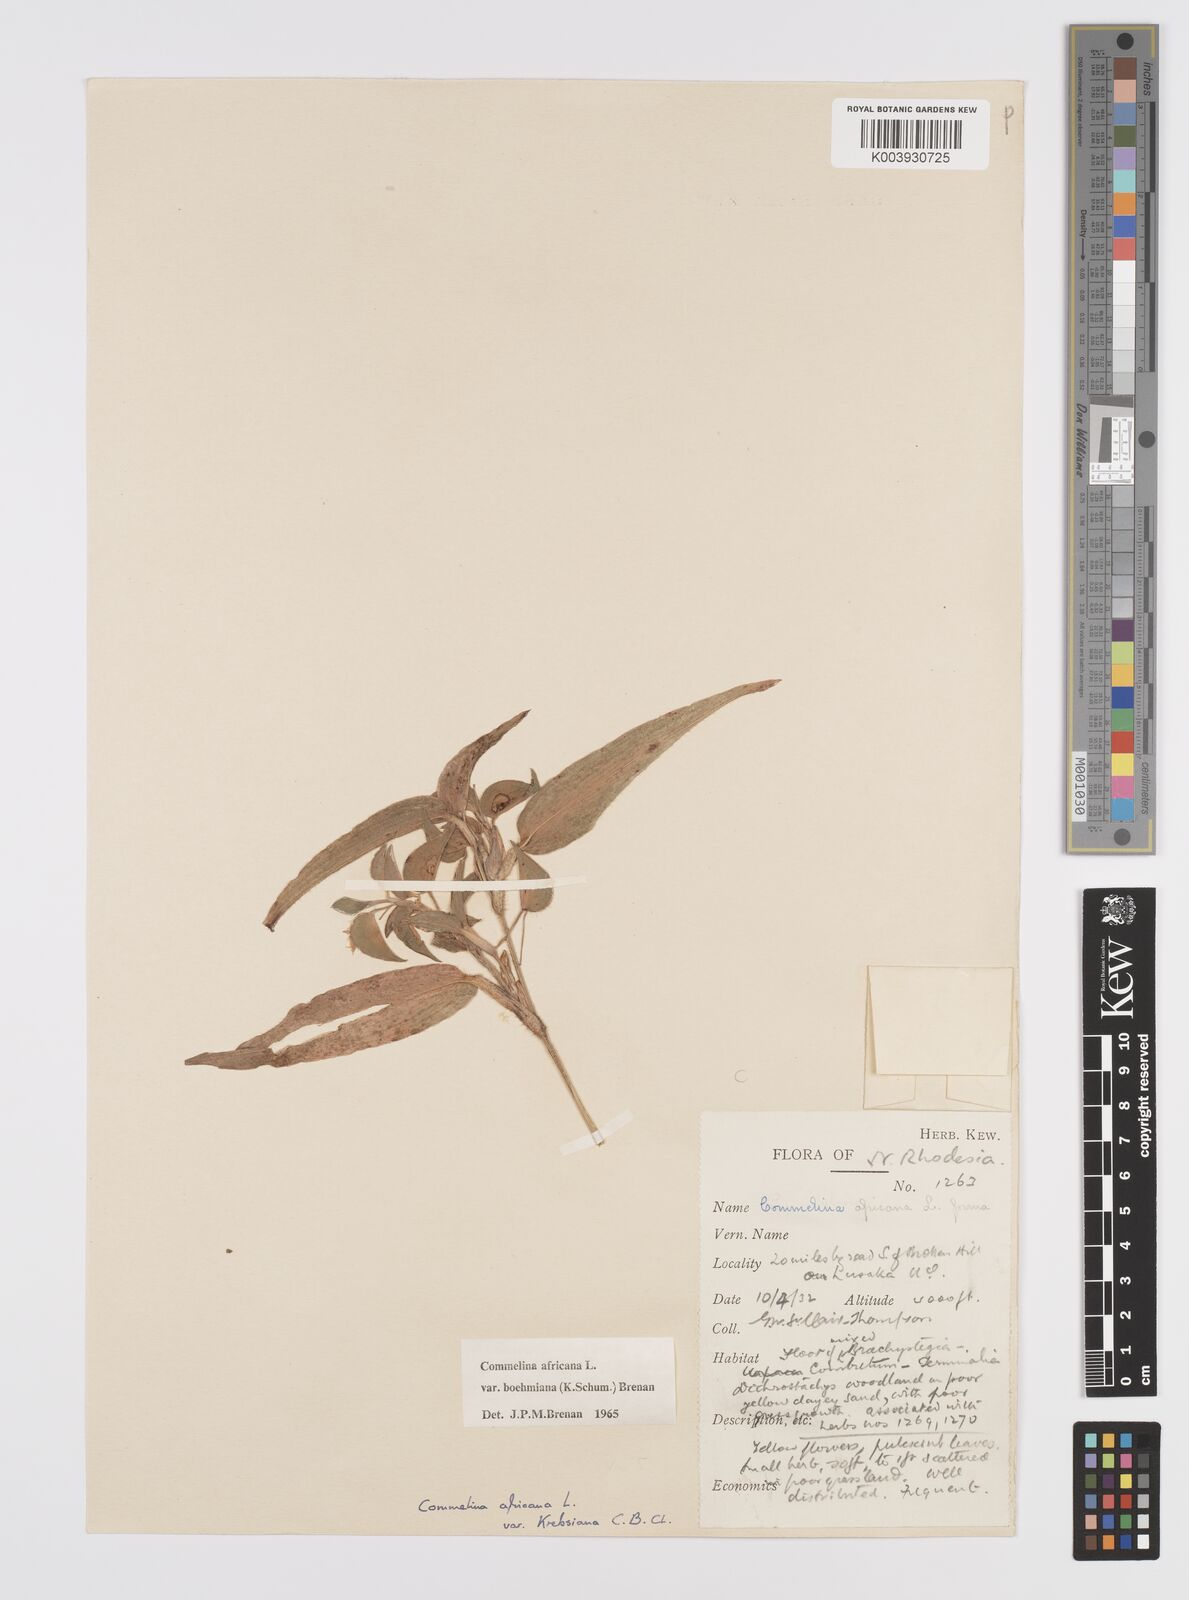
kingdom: Plantae
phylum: Tracheophyta
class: Liliopsida
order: Commelinales
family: Commelinaceae
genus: Commelina
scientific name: Commelina africana
